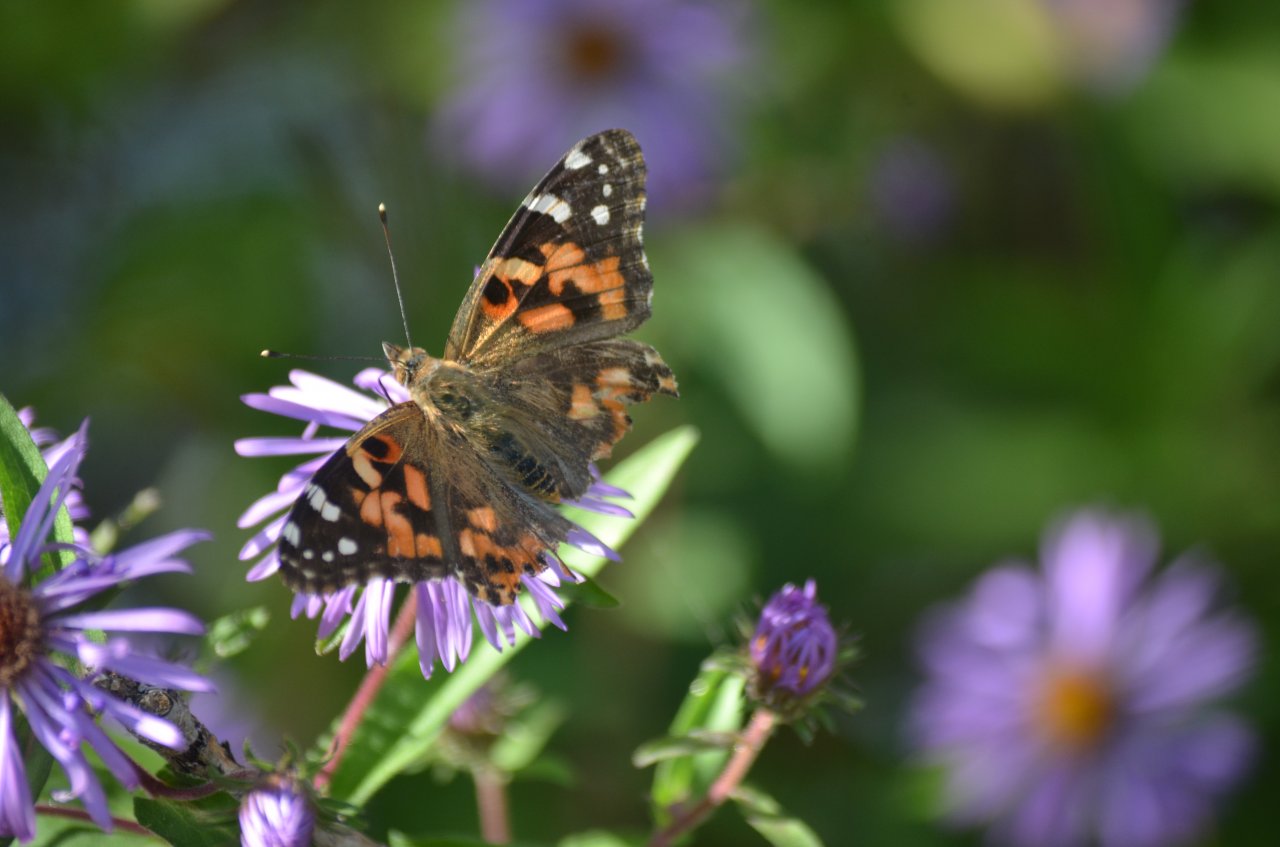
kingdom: Animalia
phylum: Arthropoda
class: Insecta
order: Lepidoptera
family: Nymphalidae
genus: Vanessa
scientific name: Vanessa cardui
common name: Painted Lady
